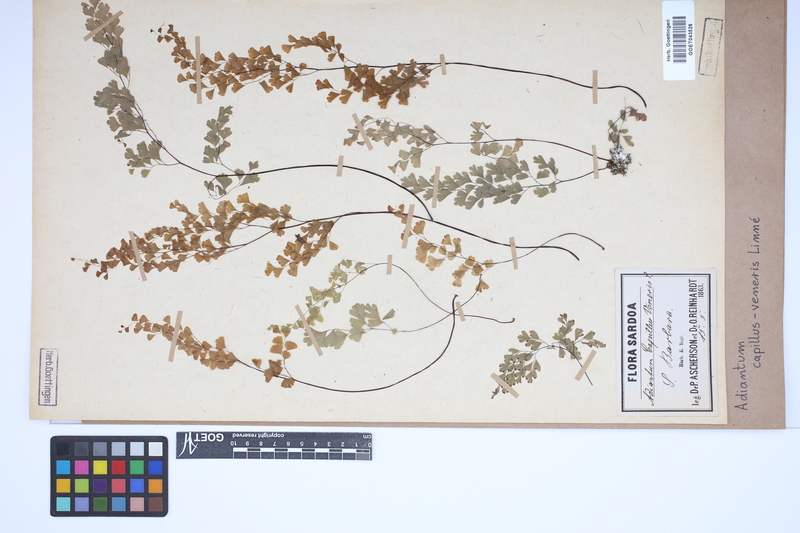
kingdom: Plantae
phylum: Tracheophyta
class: Polypodiopsida
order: Polypodiales
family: Pteridaceae
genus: Adiantum
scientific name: Adiantum capillus-veneris
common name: Maidenhair fern
